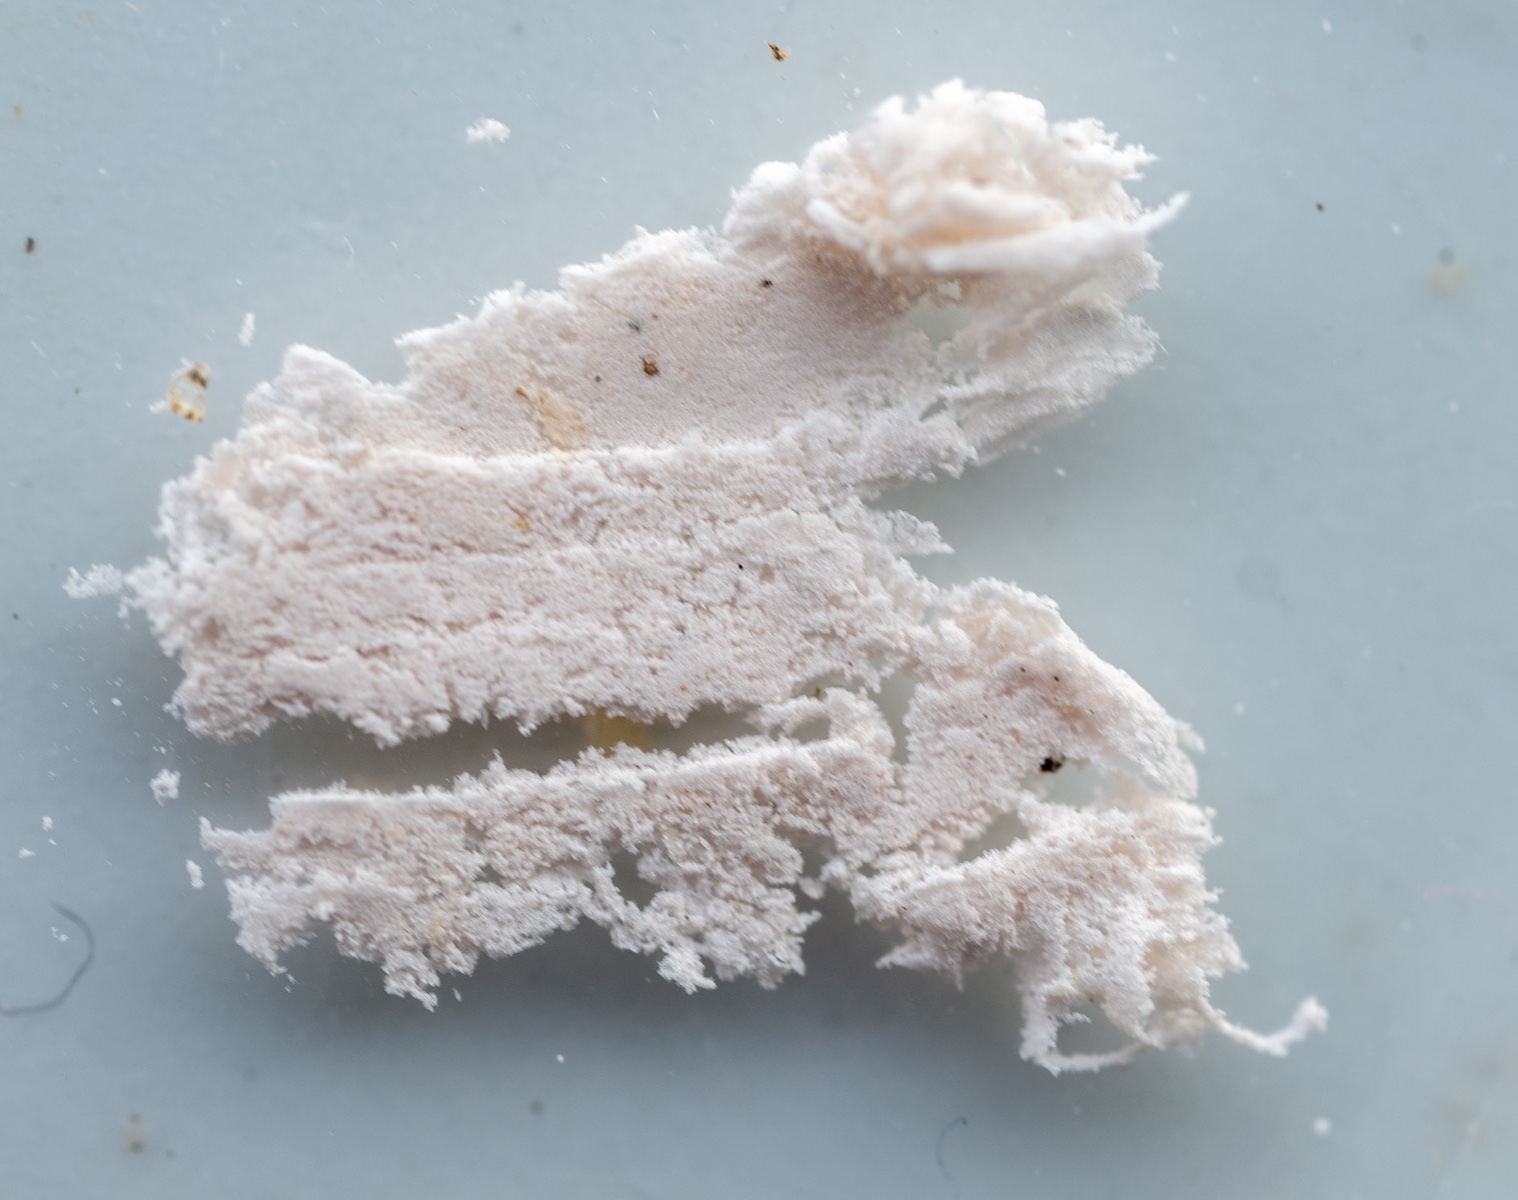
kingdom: Fungi
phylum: Basidiomycota
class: Agaricomycetes
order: Agaricales
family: Agaricaceae
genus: Macrolepiota
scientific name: Macrolepiota fuliginosa
